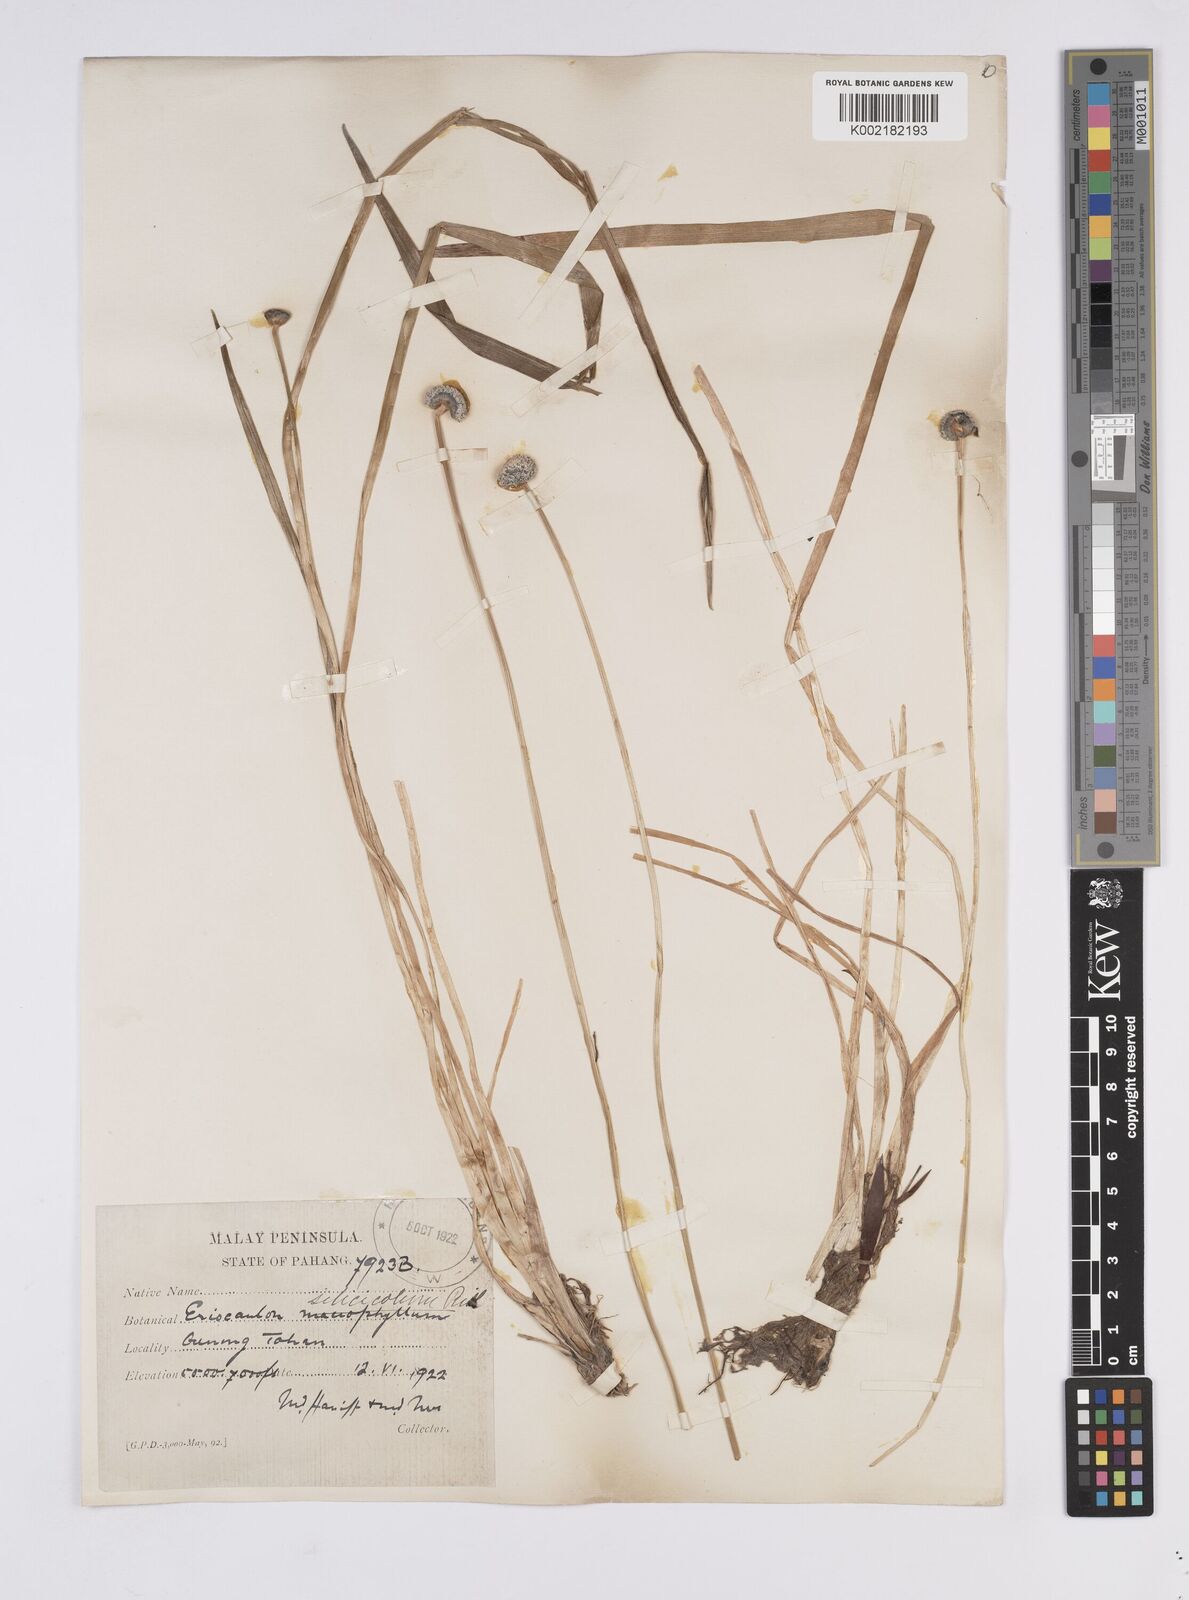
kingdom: Plantae
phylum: Tracheophyta
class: Liliopsida
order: Poales
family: Eriocaulaceae
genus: Eriocaulon
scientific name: Eriocaulon silicicola
